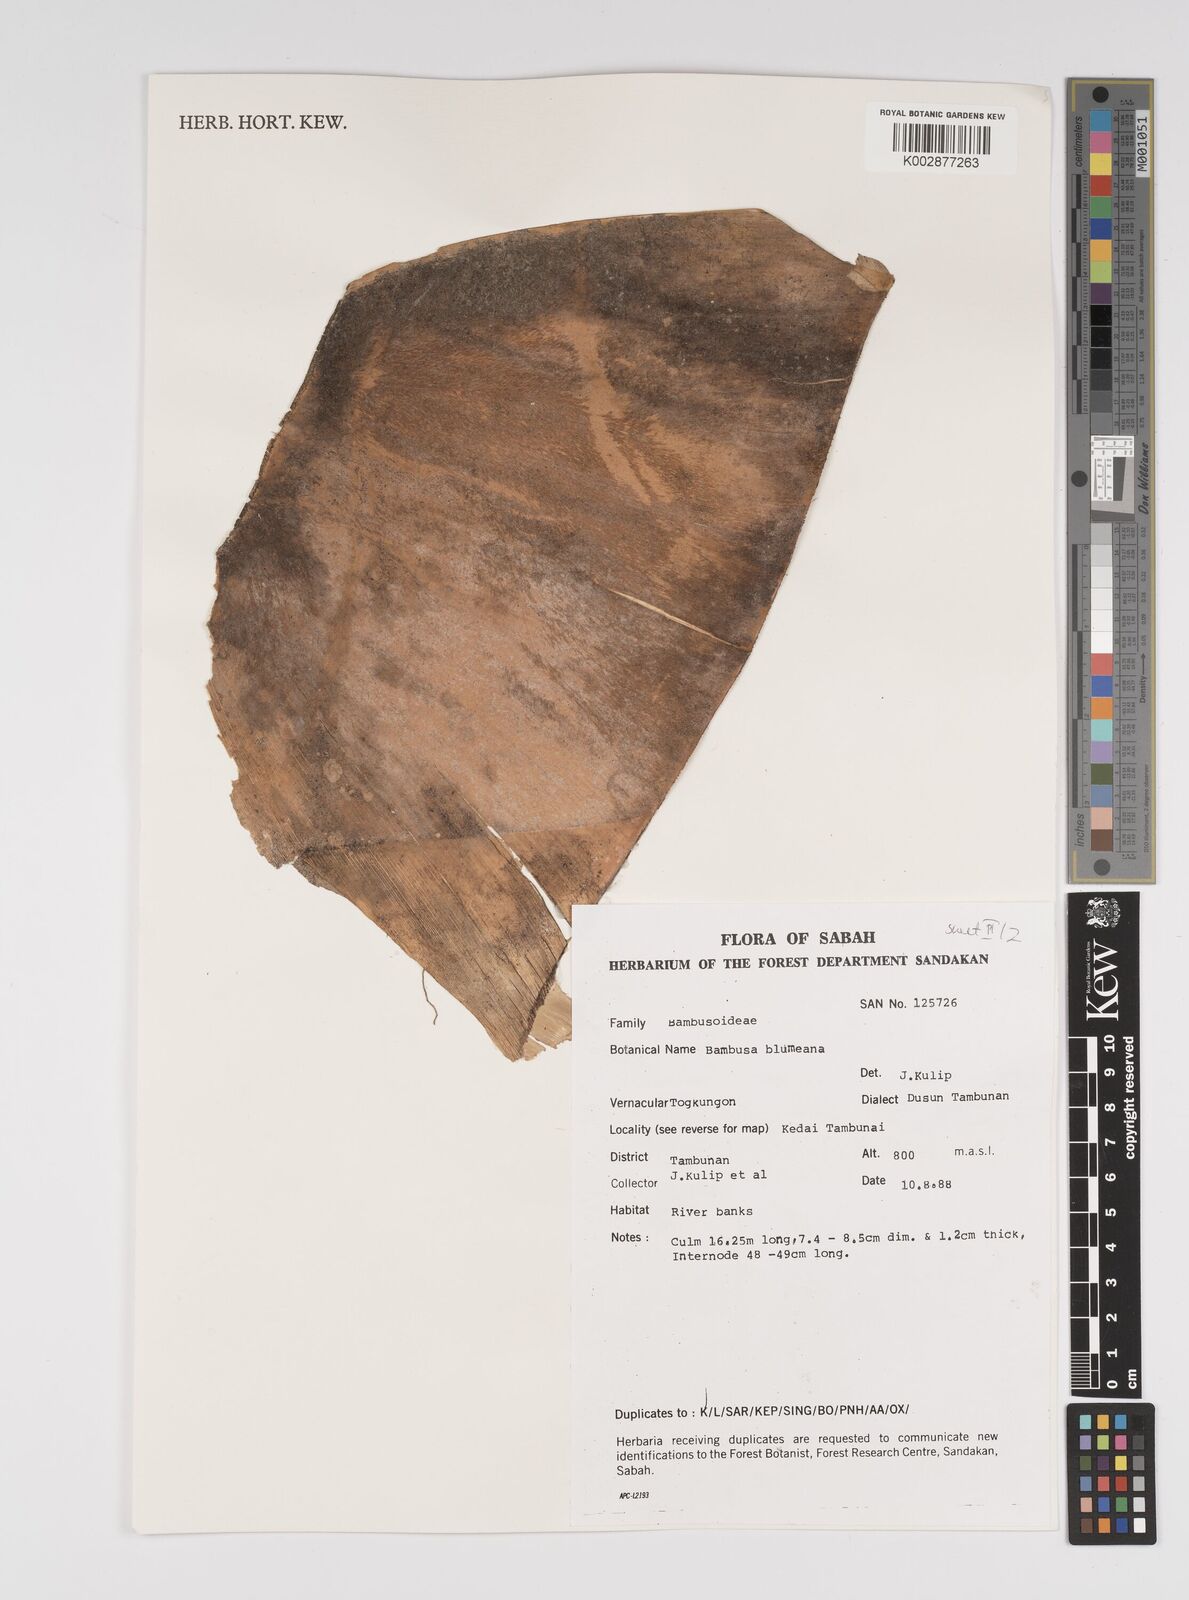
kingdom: Plantae
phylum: Tracheophyta
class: Liliopsida
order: Poales
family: Poaceae
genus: Bambusa
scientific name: Bambusa spinosa
